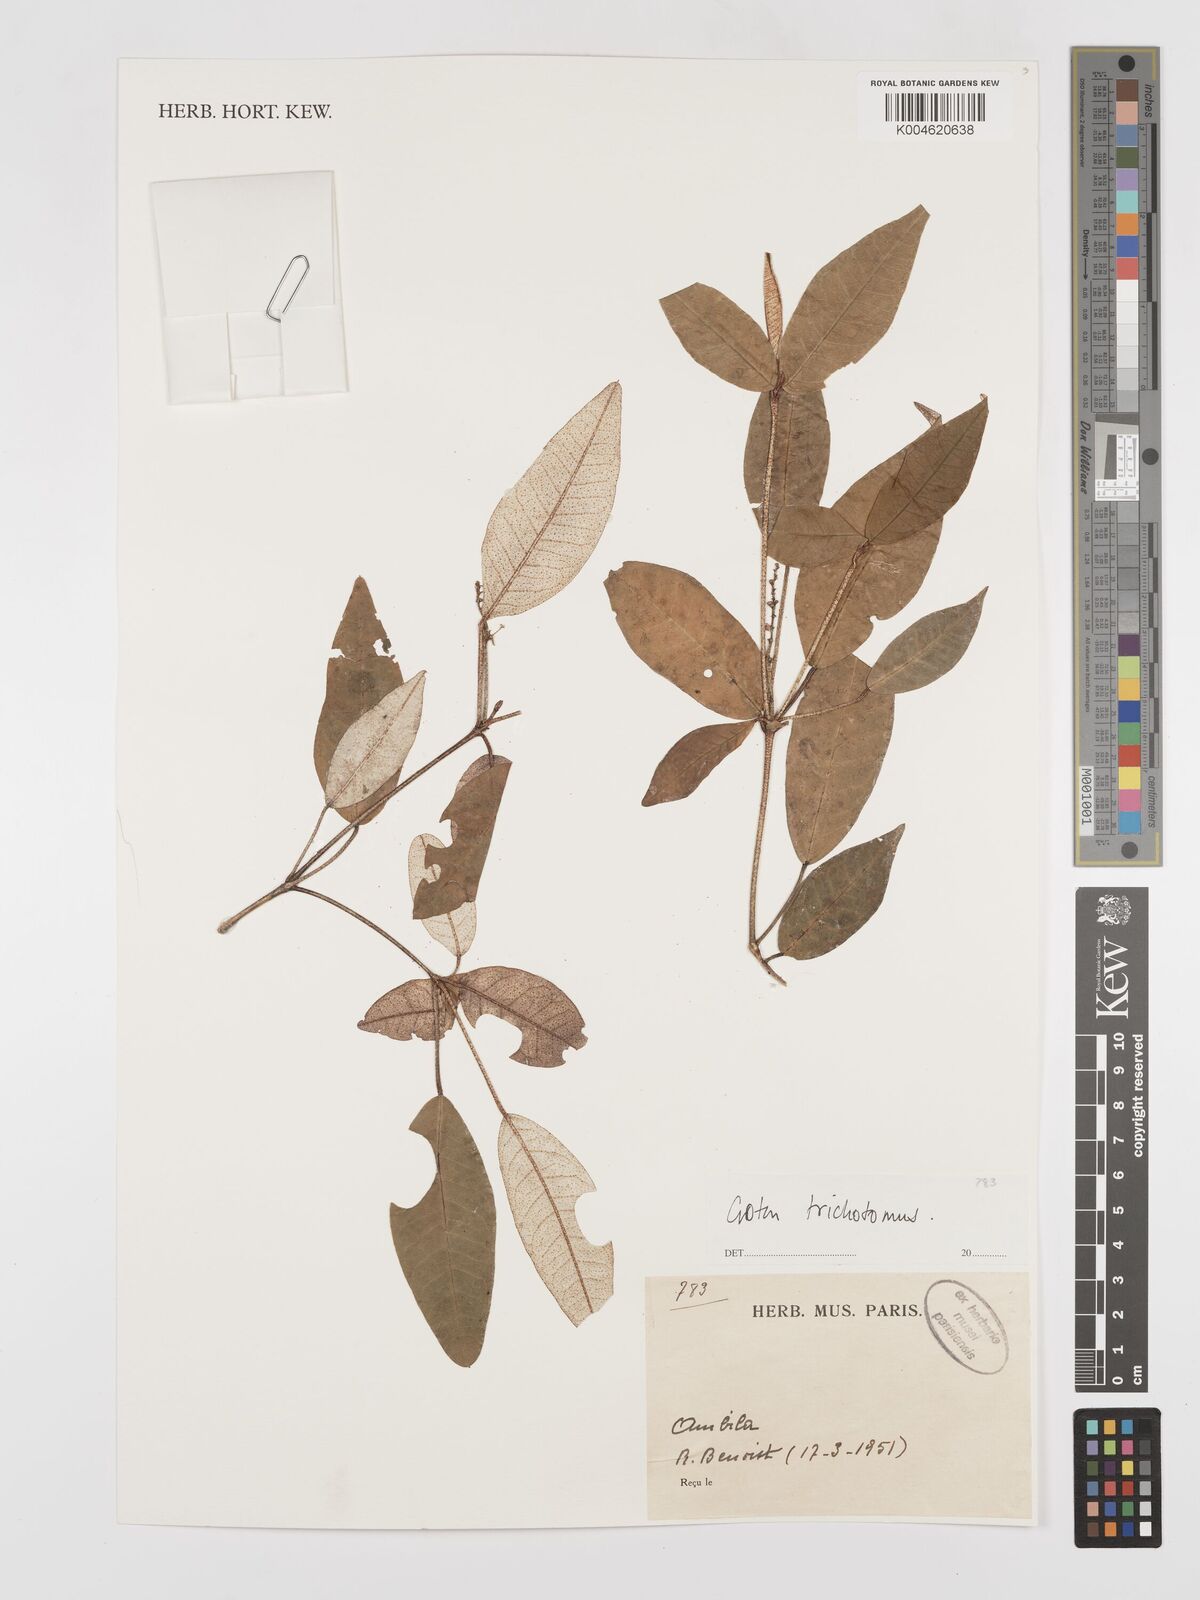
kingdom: Plantae
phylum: Tracheophyta
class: Magnoliopsida
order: Malpighiales
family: Euphorbiaceae
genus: Croton
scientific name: Croton trichotomus
